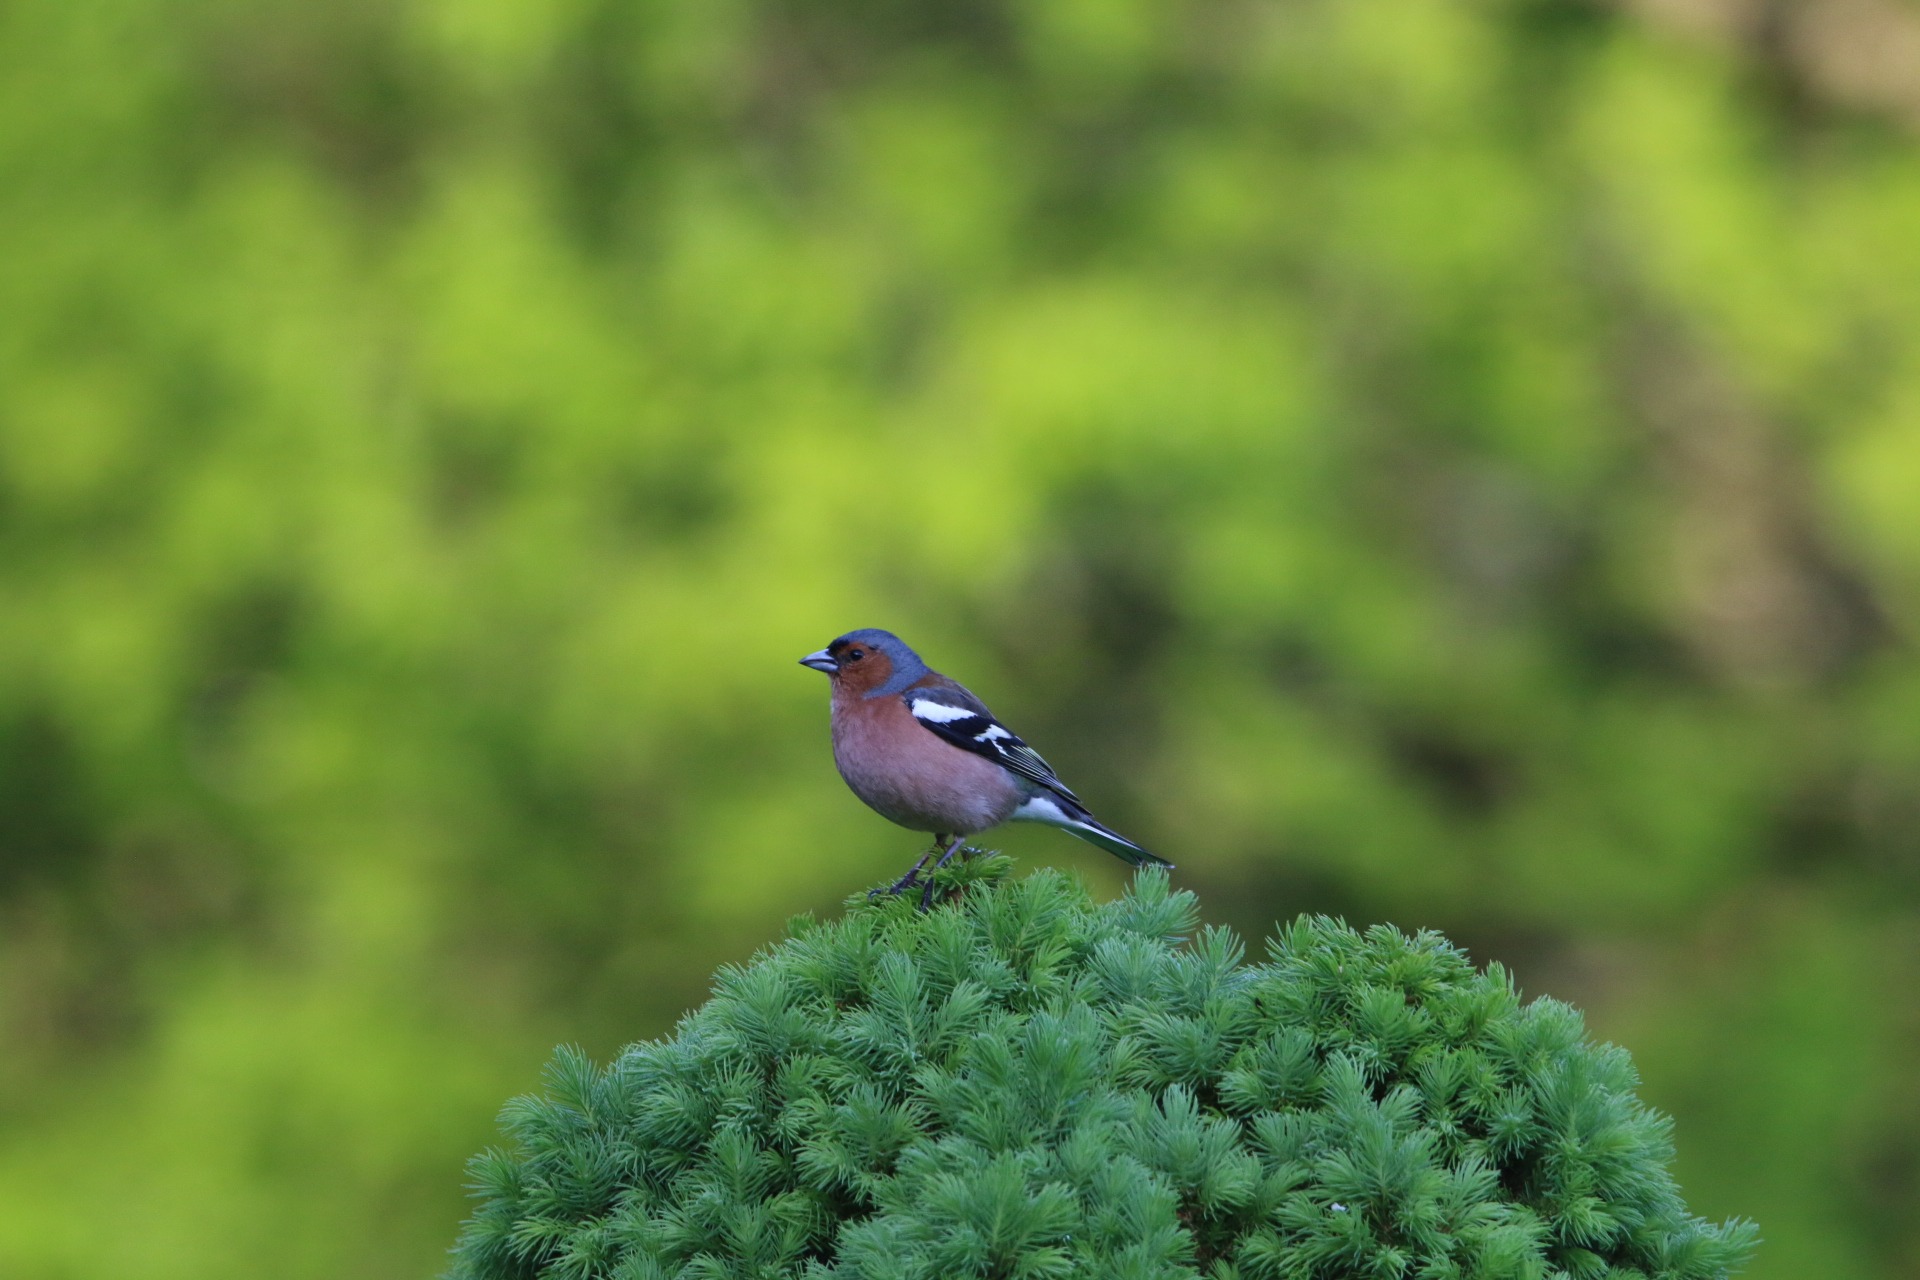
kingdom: Animalia
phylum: Chordata
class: Aves
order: Passeriformes
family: Fringillidae
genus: Fringilla
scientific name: Fringilla coelebs
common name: Bogfinke
